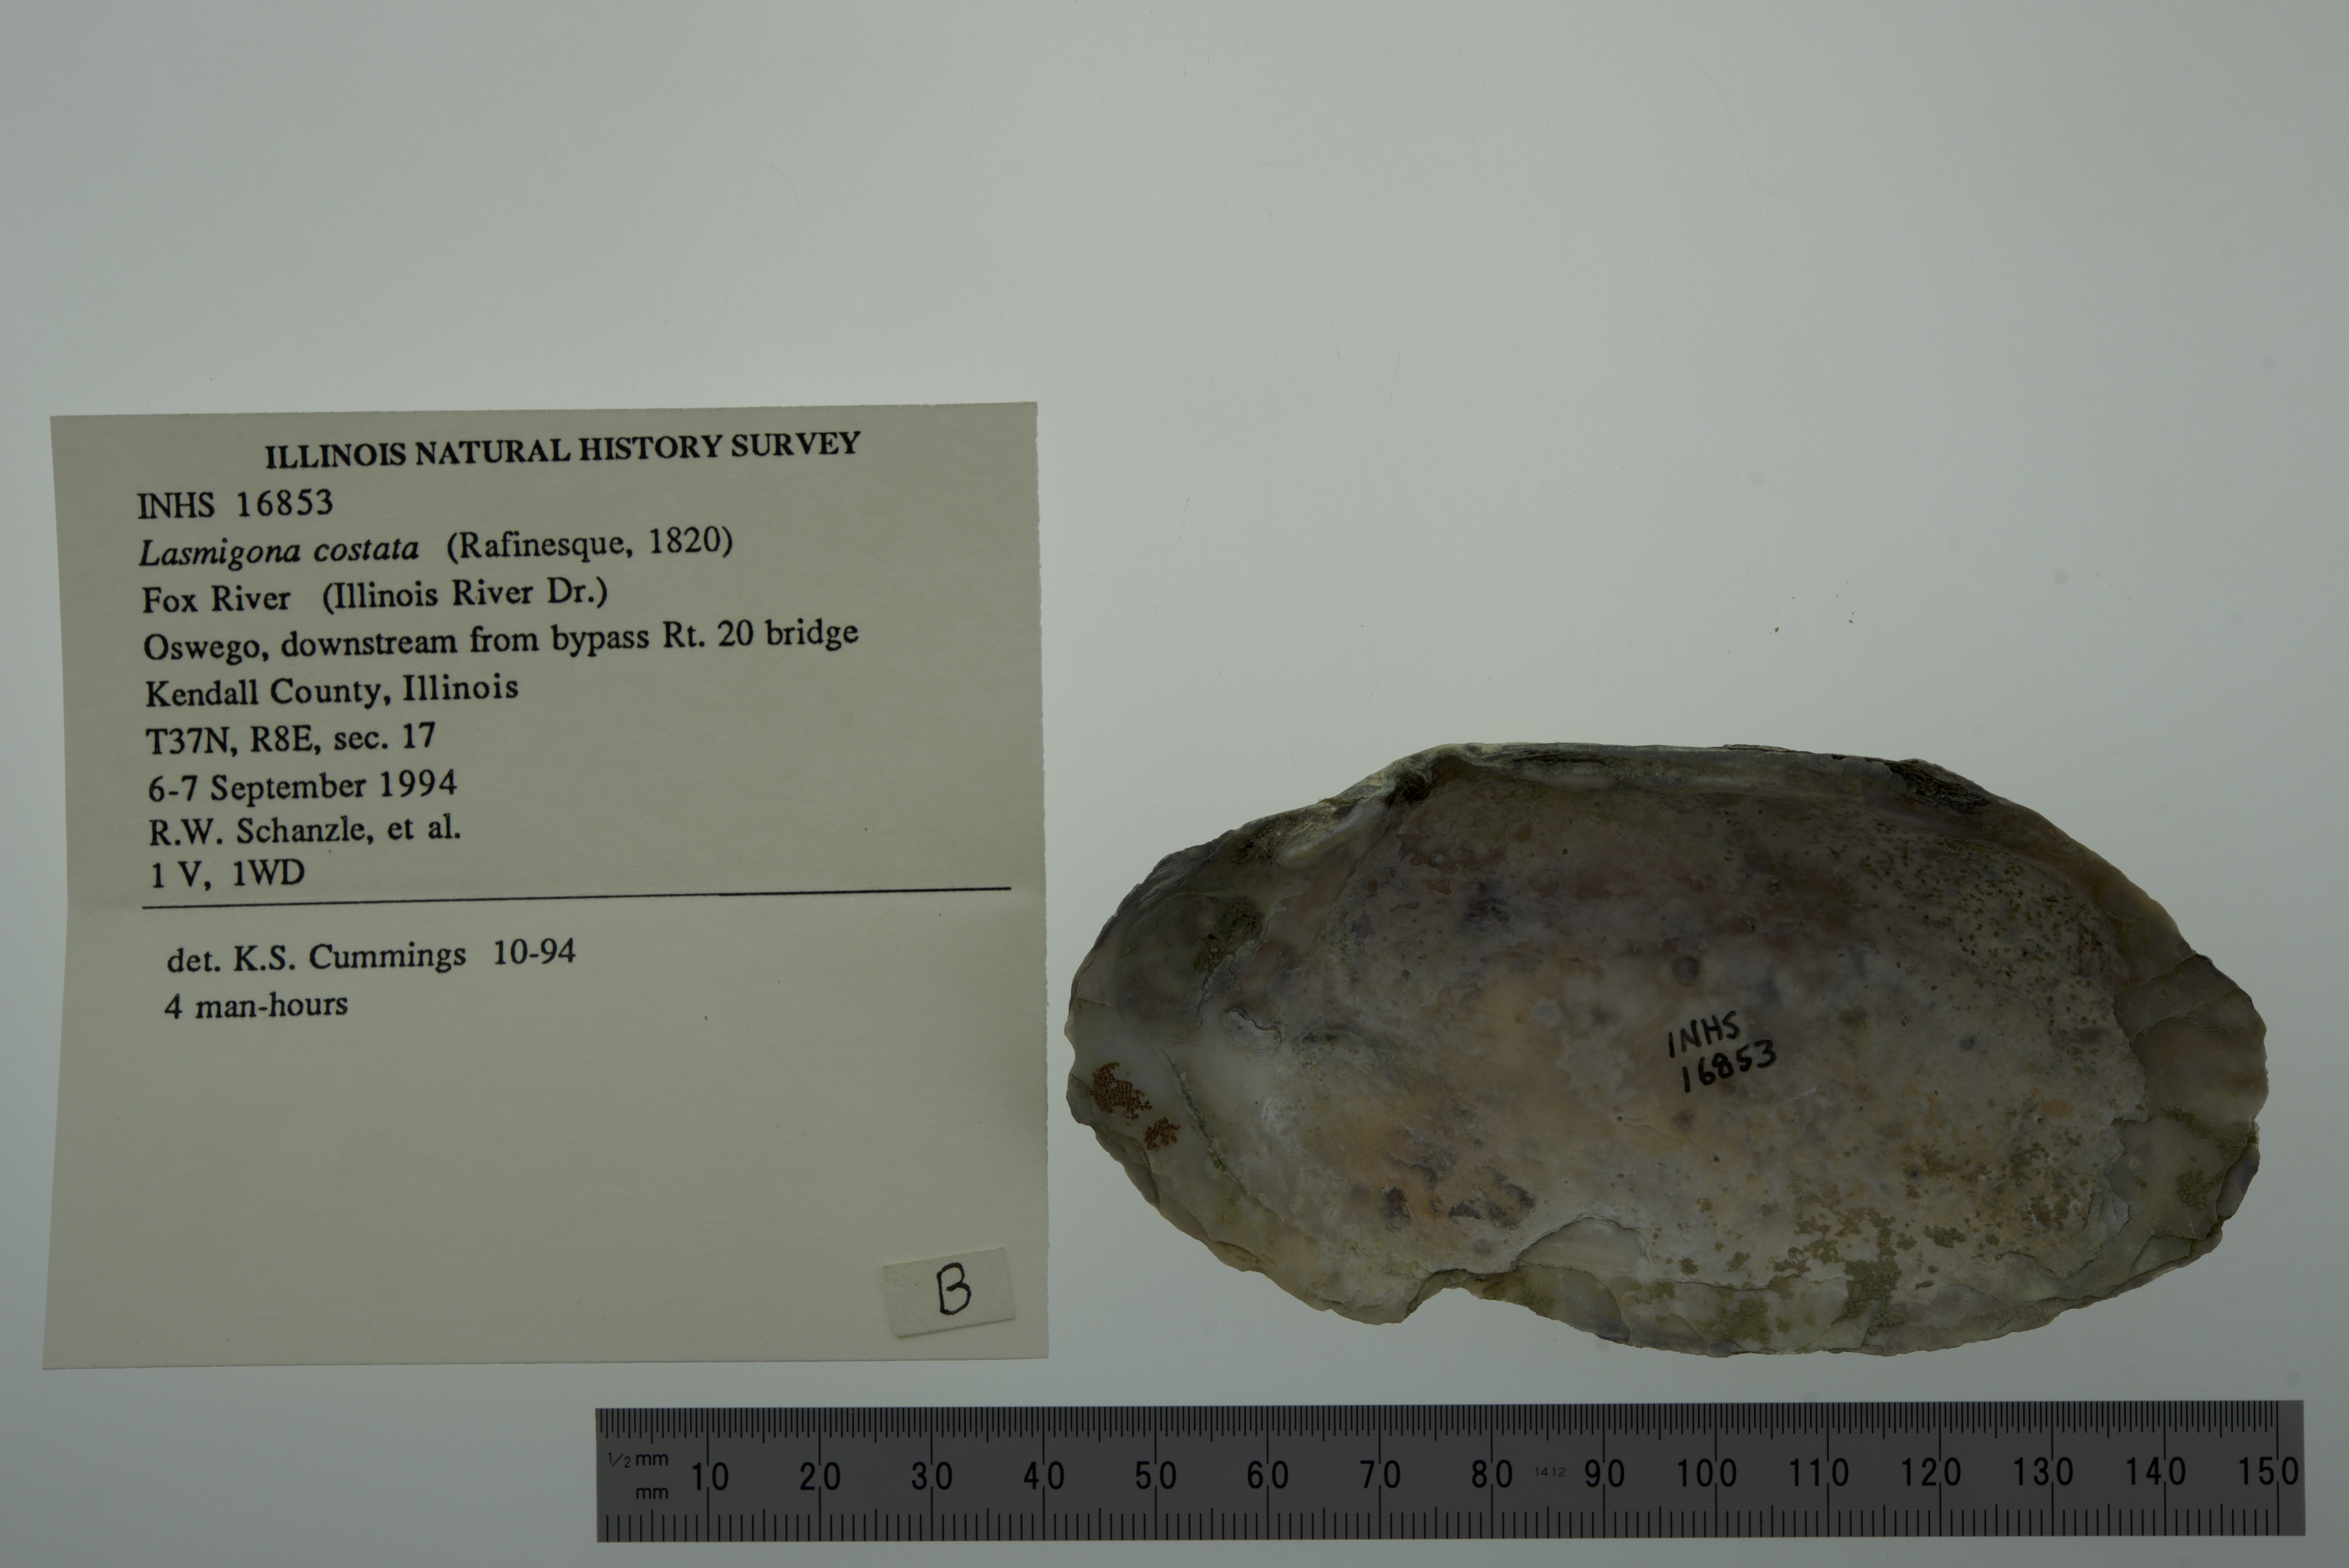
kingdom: Animalia
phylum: Mollusca
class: Bivalvia
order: Unionida
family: Unionidae
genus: Lasmigona
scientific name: Lasmigona costata
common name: Flutedshell
